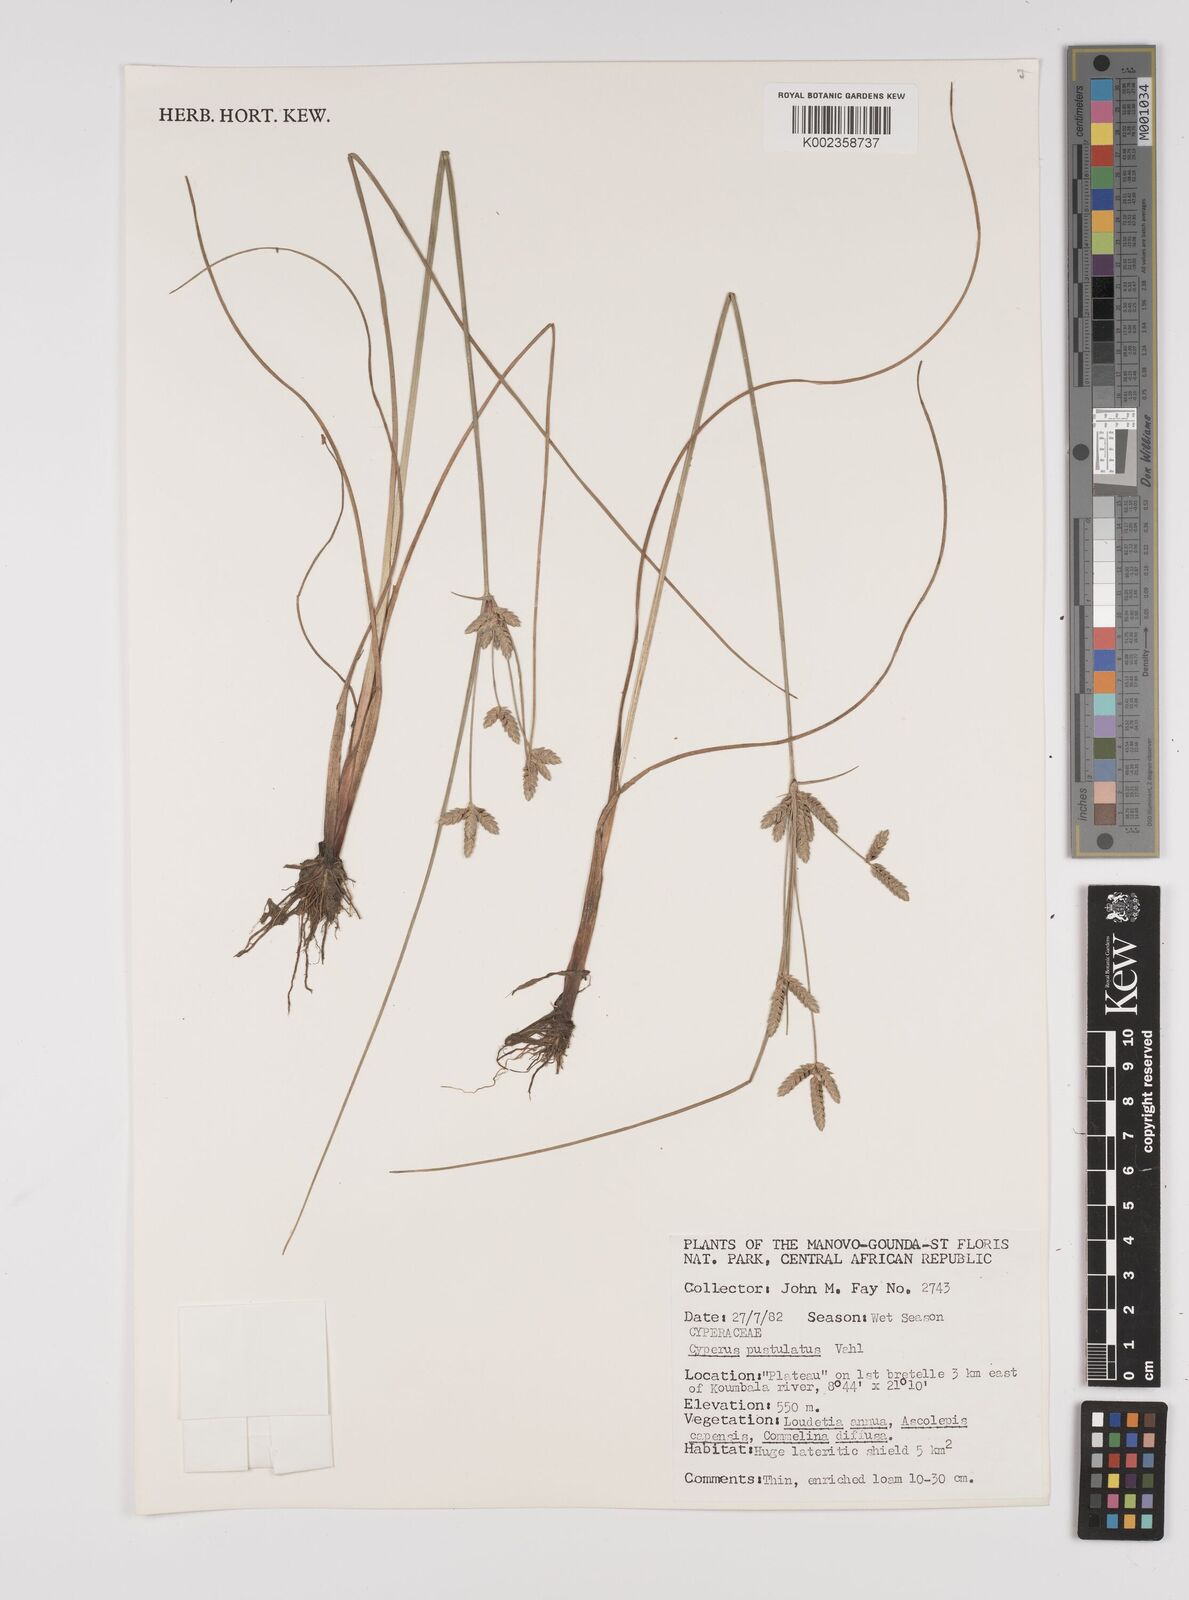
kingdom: Plantae
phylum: Tracheophyta
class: Liliopsida
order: Poales
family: Cyperaceae
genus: Cyperus
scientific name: Cyperus pustulatus
